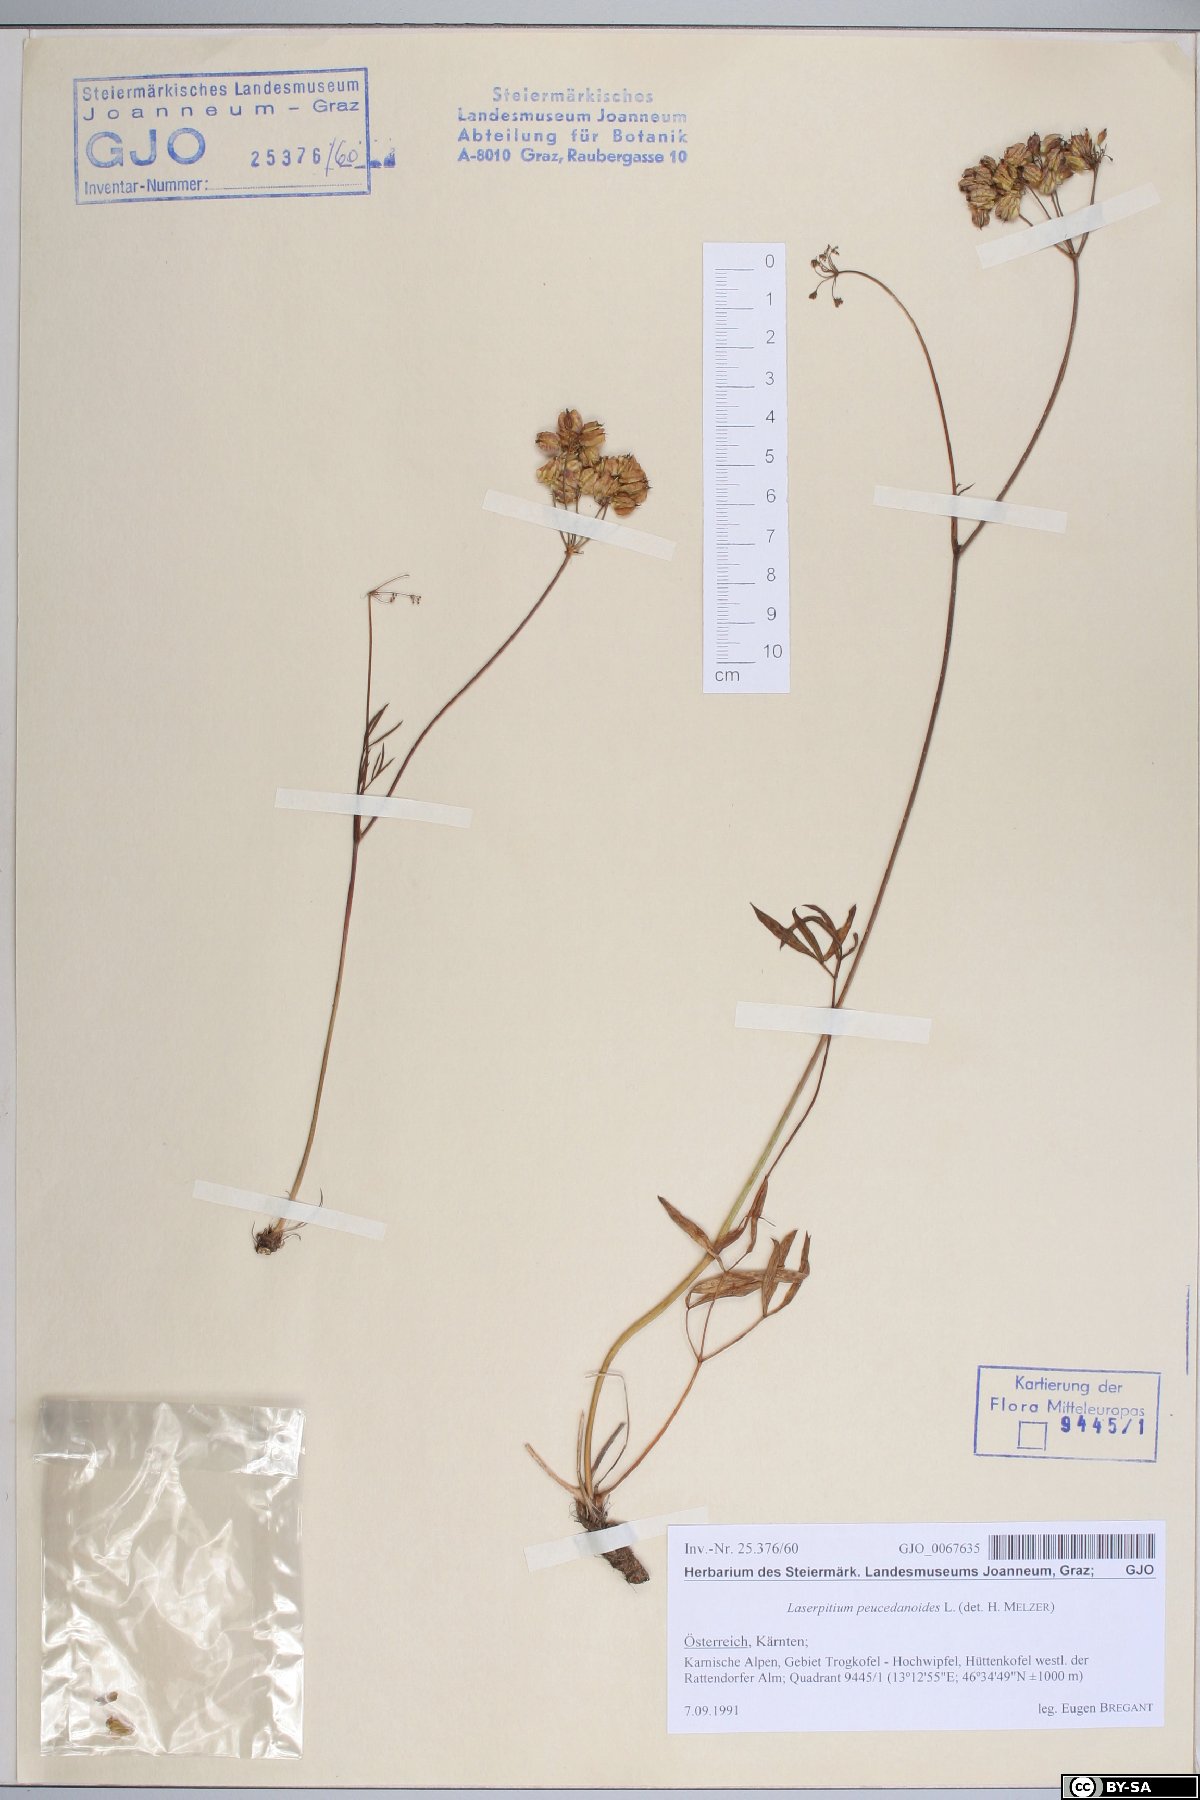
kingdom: Plantae
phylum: Tracheophyta
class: Magnoliopsida
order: Apiales
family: Apiaceae
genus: Laserpitium
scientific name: Laserpitium peucedanoides
